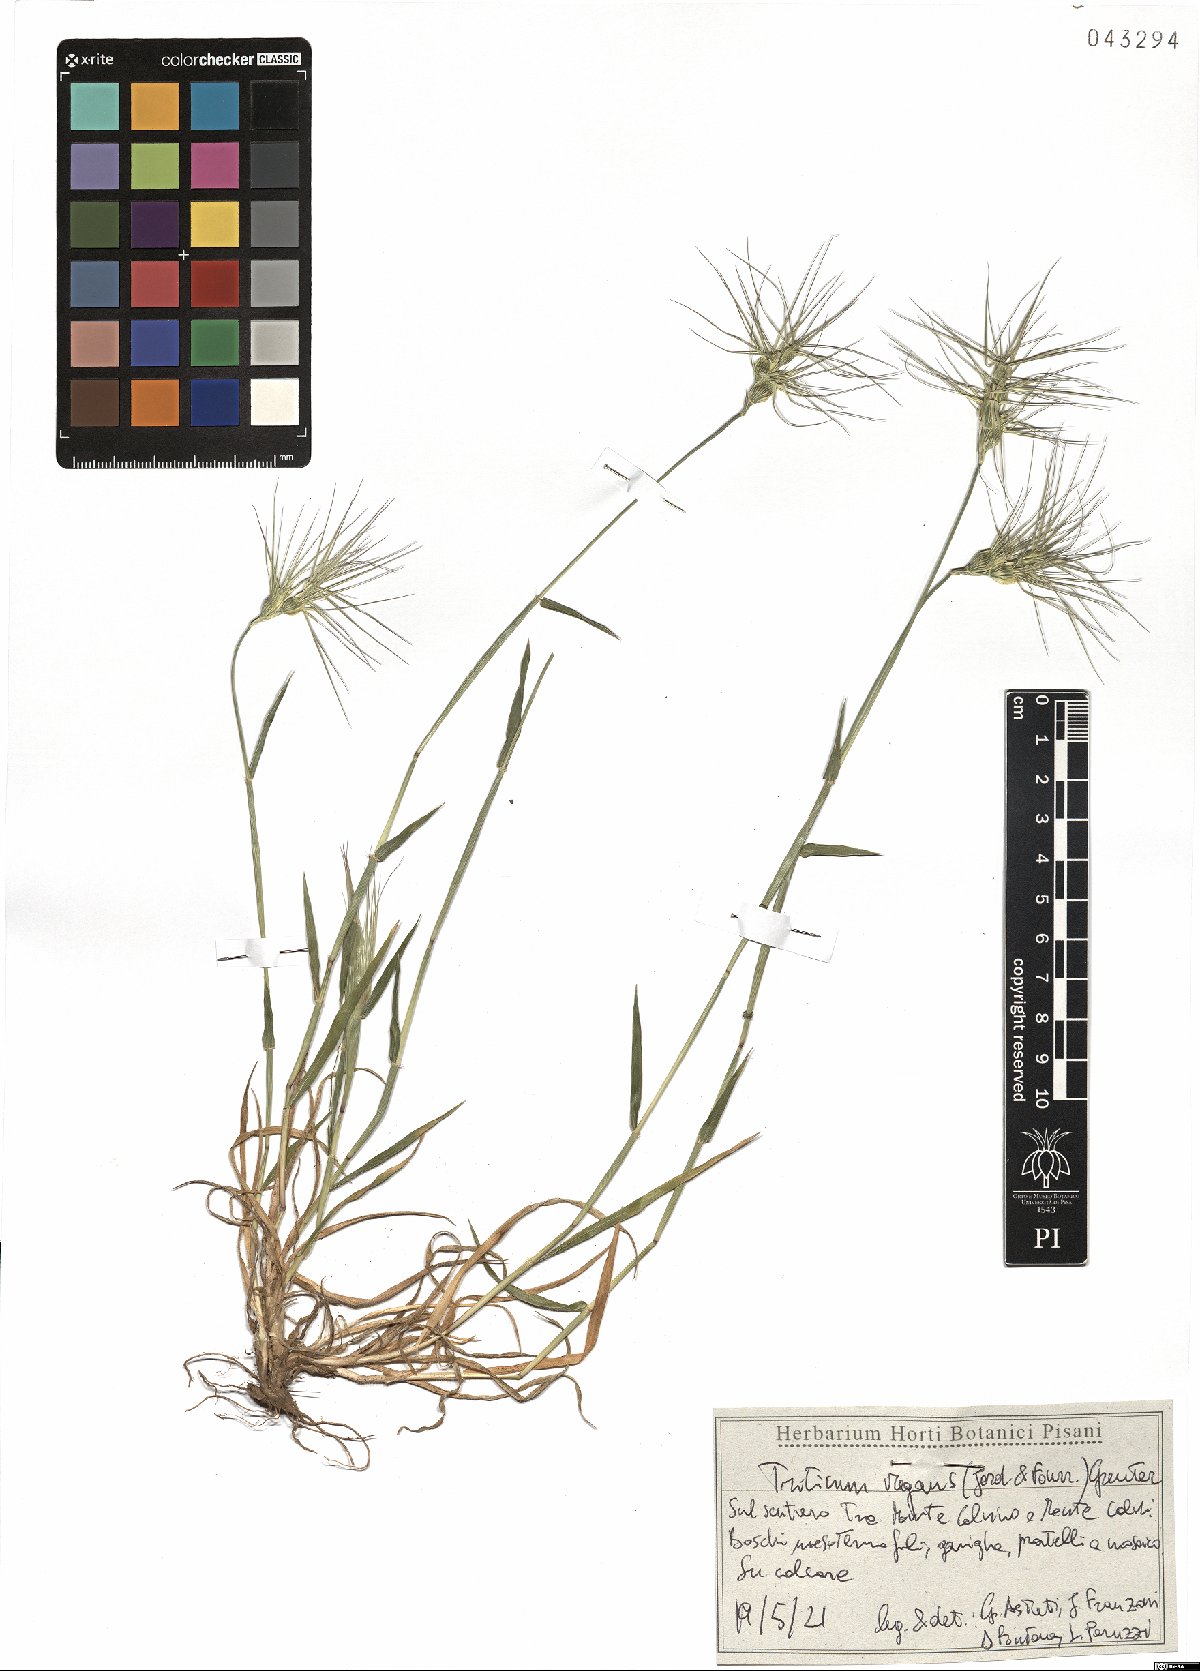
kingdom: Plantae
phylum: Tracheophyta
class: Liliopsida
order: Poales
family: Poaceae
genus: Aegilops
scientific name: Aegilops geniculata
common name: Ovate goat grass
